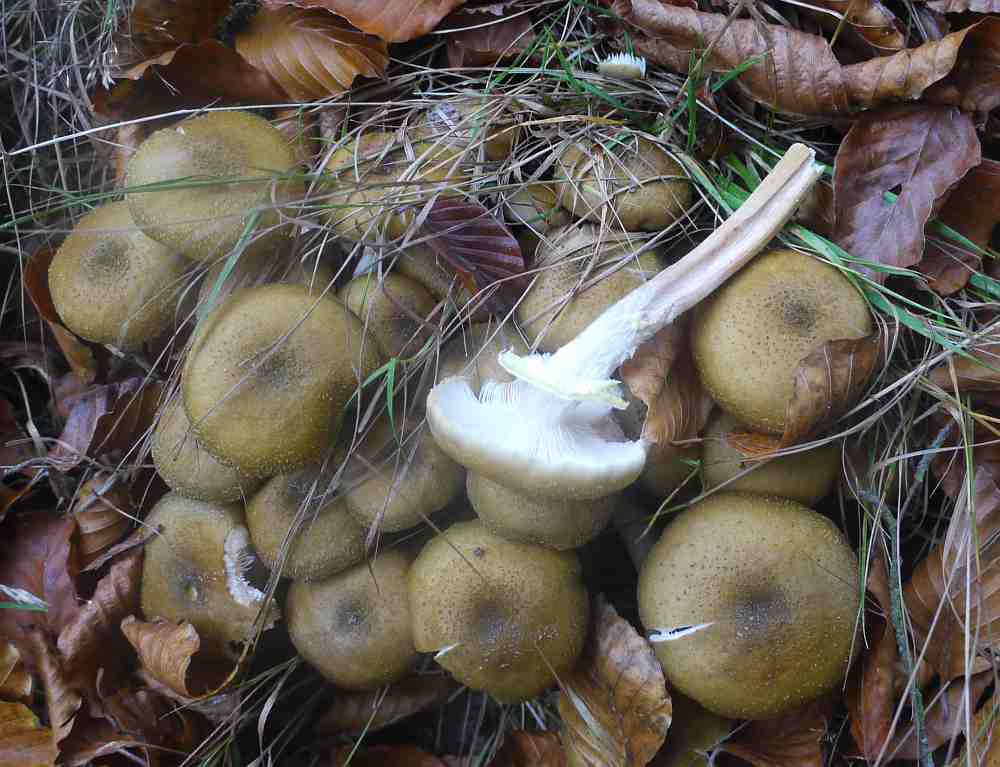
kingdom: Fungi
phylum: Basidiomycota
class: Agaricomycetes
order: Agaricales
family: Physalacriaceae
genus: Armillaria
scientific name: Armillaria mellea
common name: ægte honningsvamp
